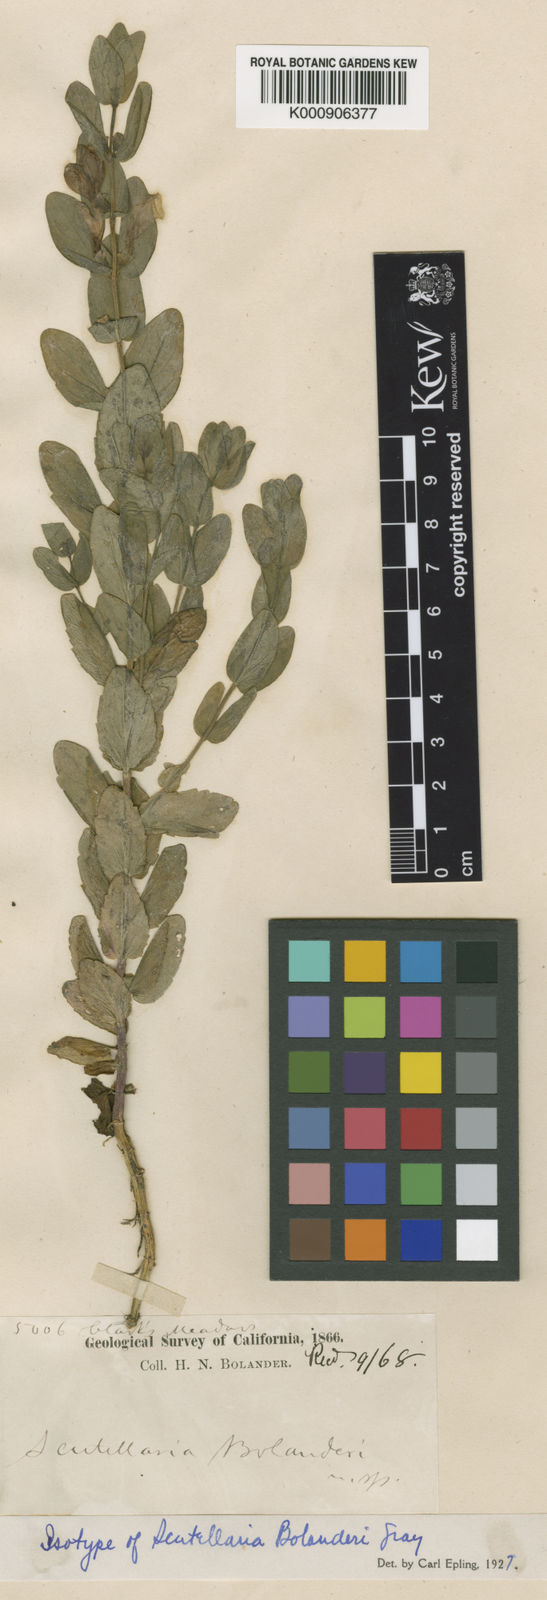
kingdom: Plantae
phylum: Tracheophyta
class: Magnoliopsida
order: Lamiales
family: Lamiaceae
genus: Scutellaria
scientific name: Scutellaria bolanderi
